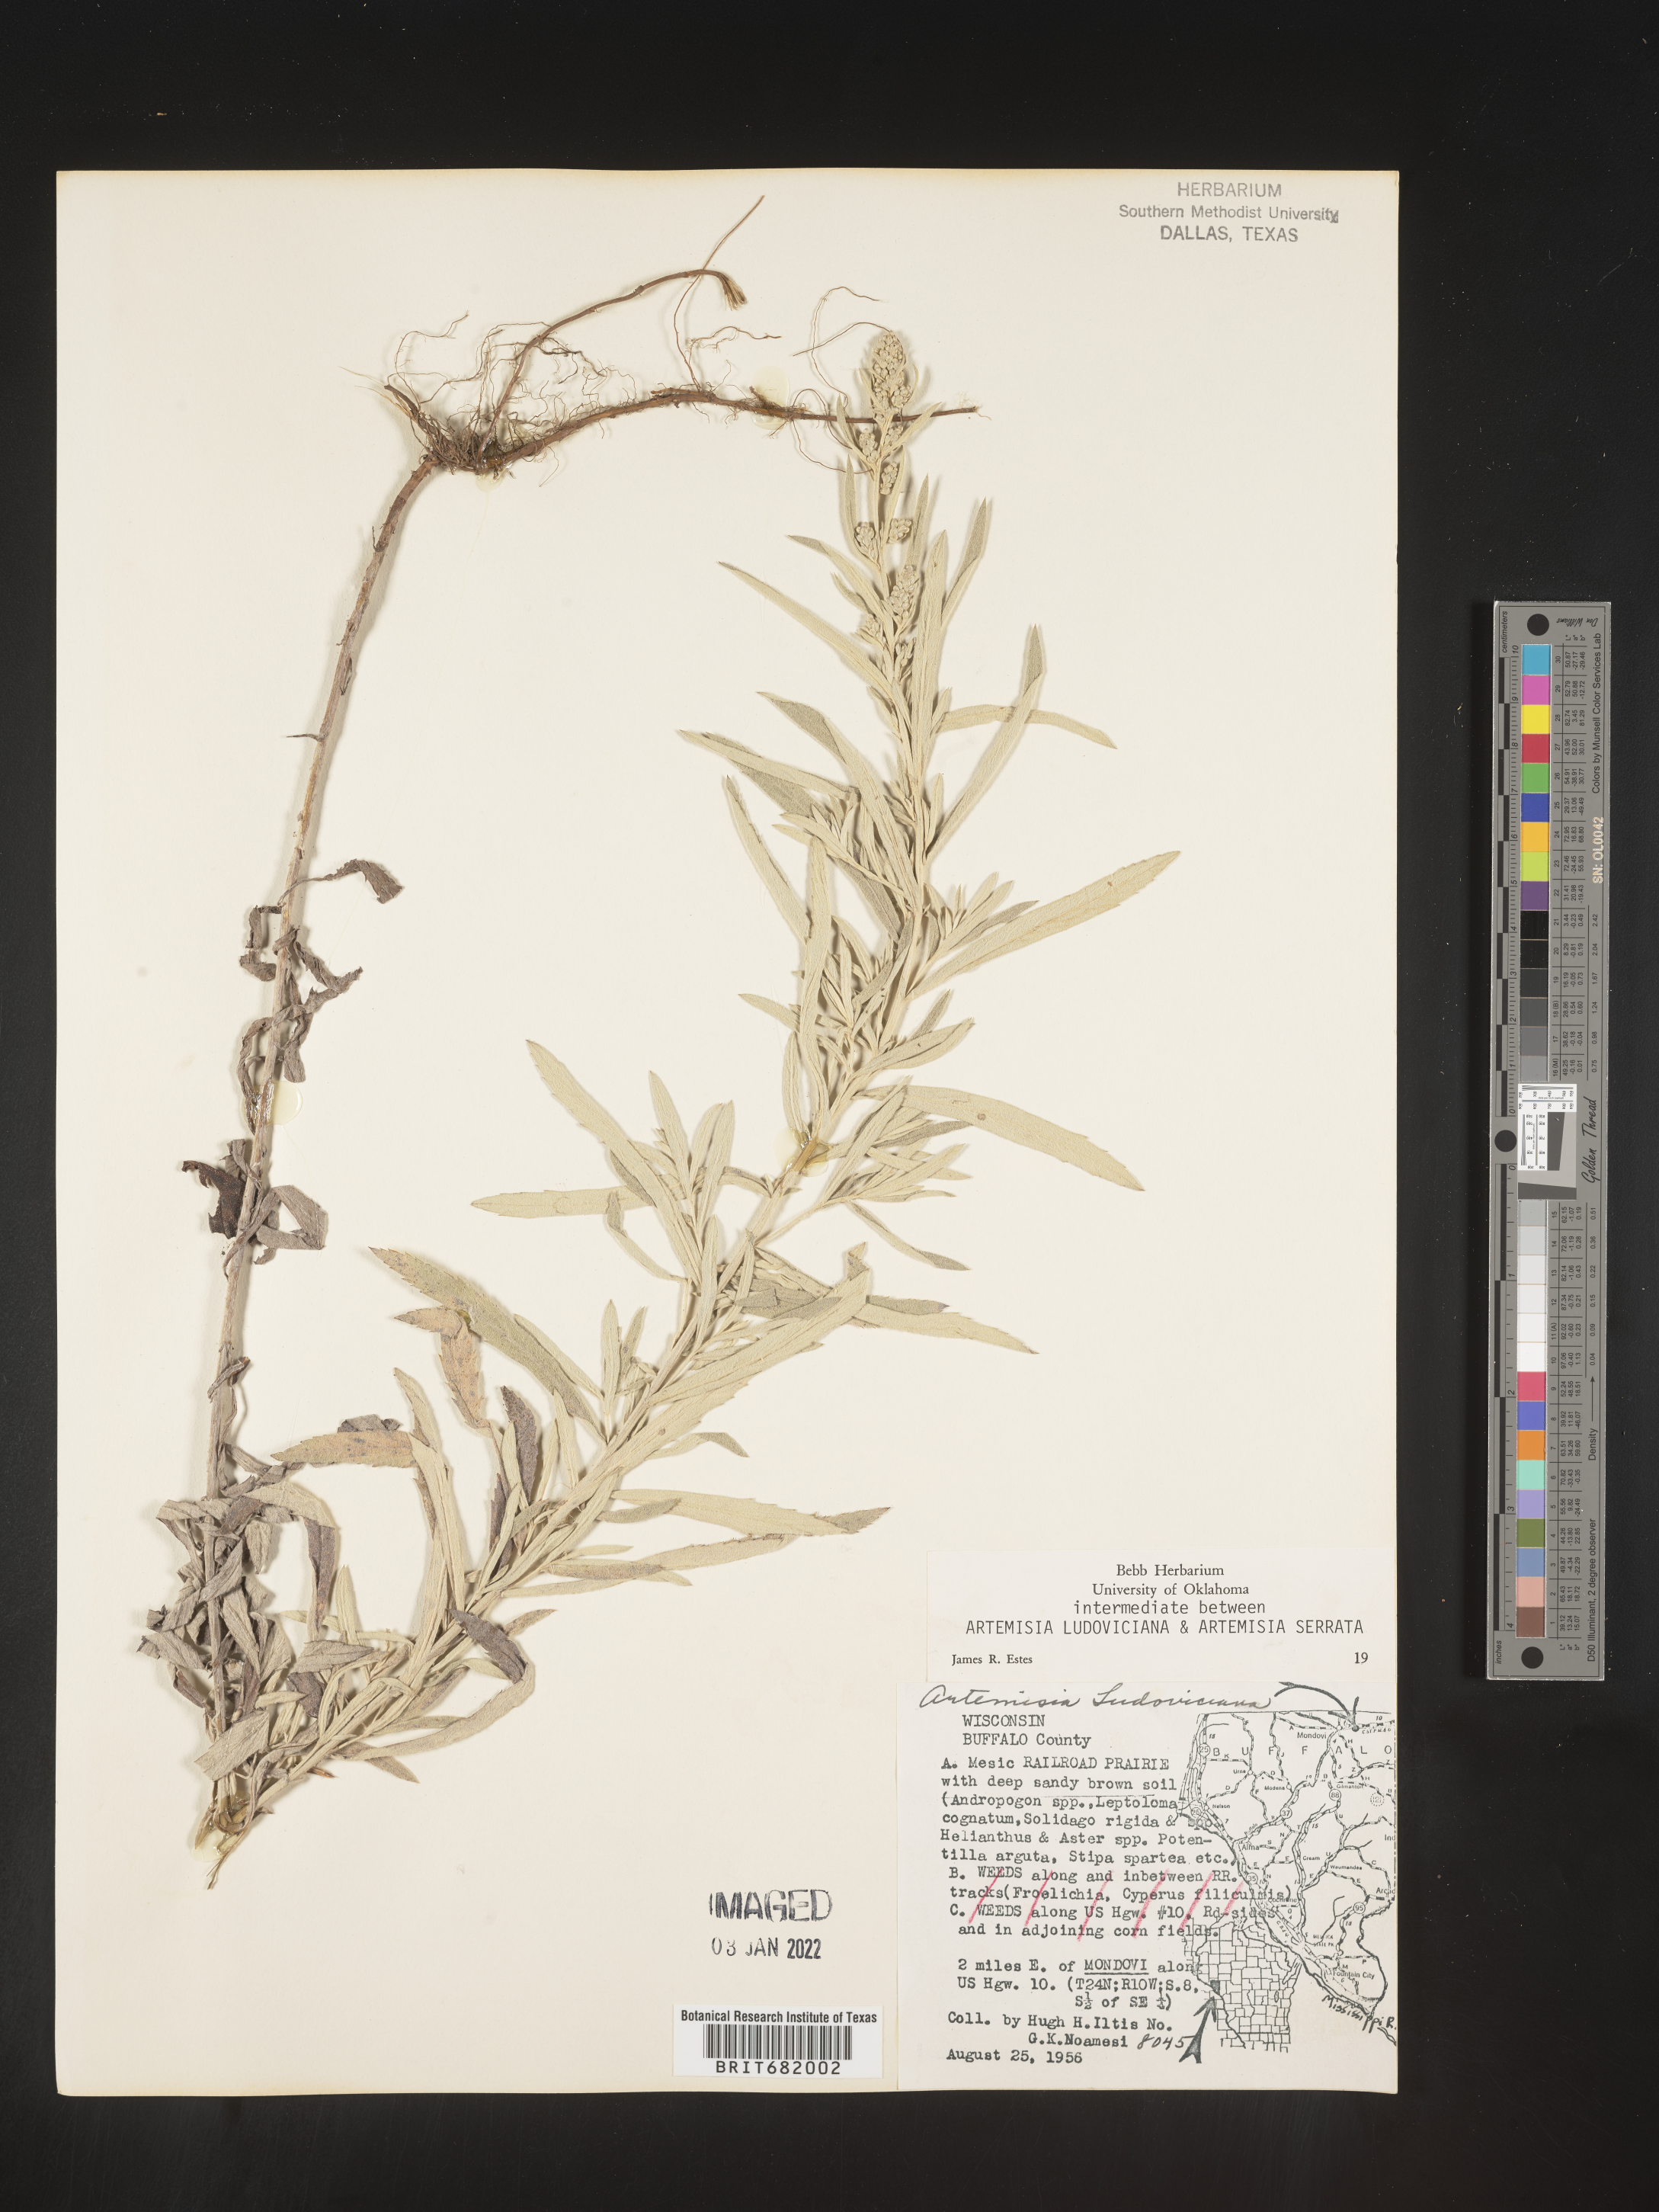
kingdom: Plantae
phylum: Tracheophyta
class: Magnoliopsida
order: Asterales
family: Asteraceae
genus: Artemisia
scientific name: Artemisia ludoviciana
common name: Western mugwort
